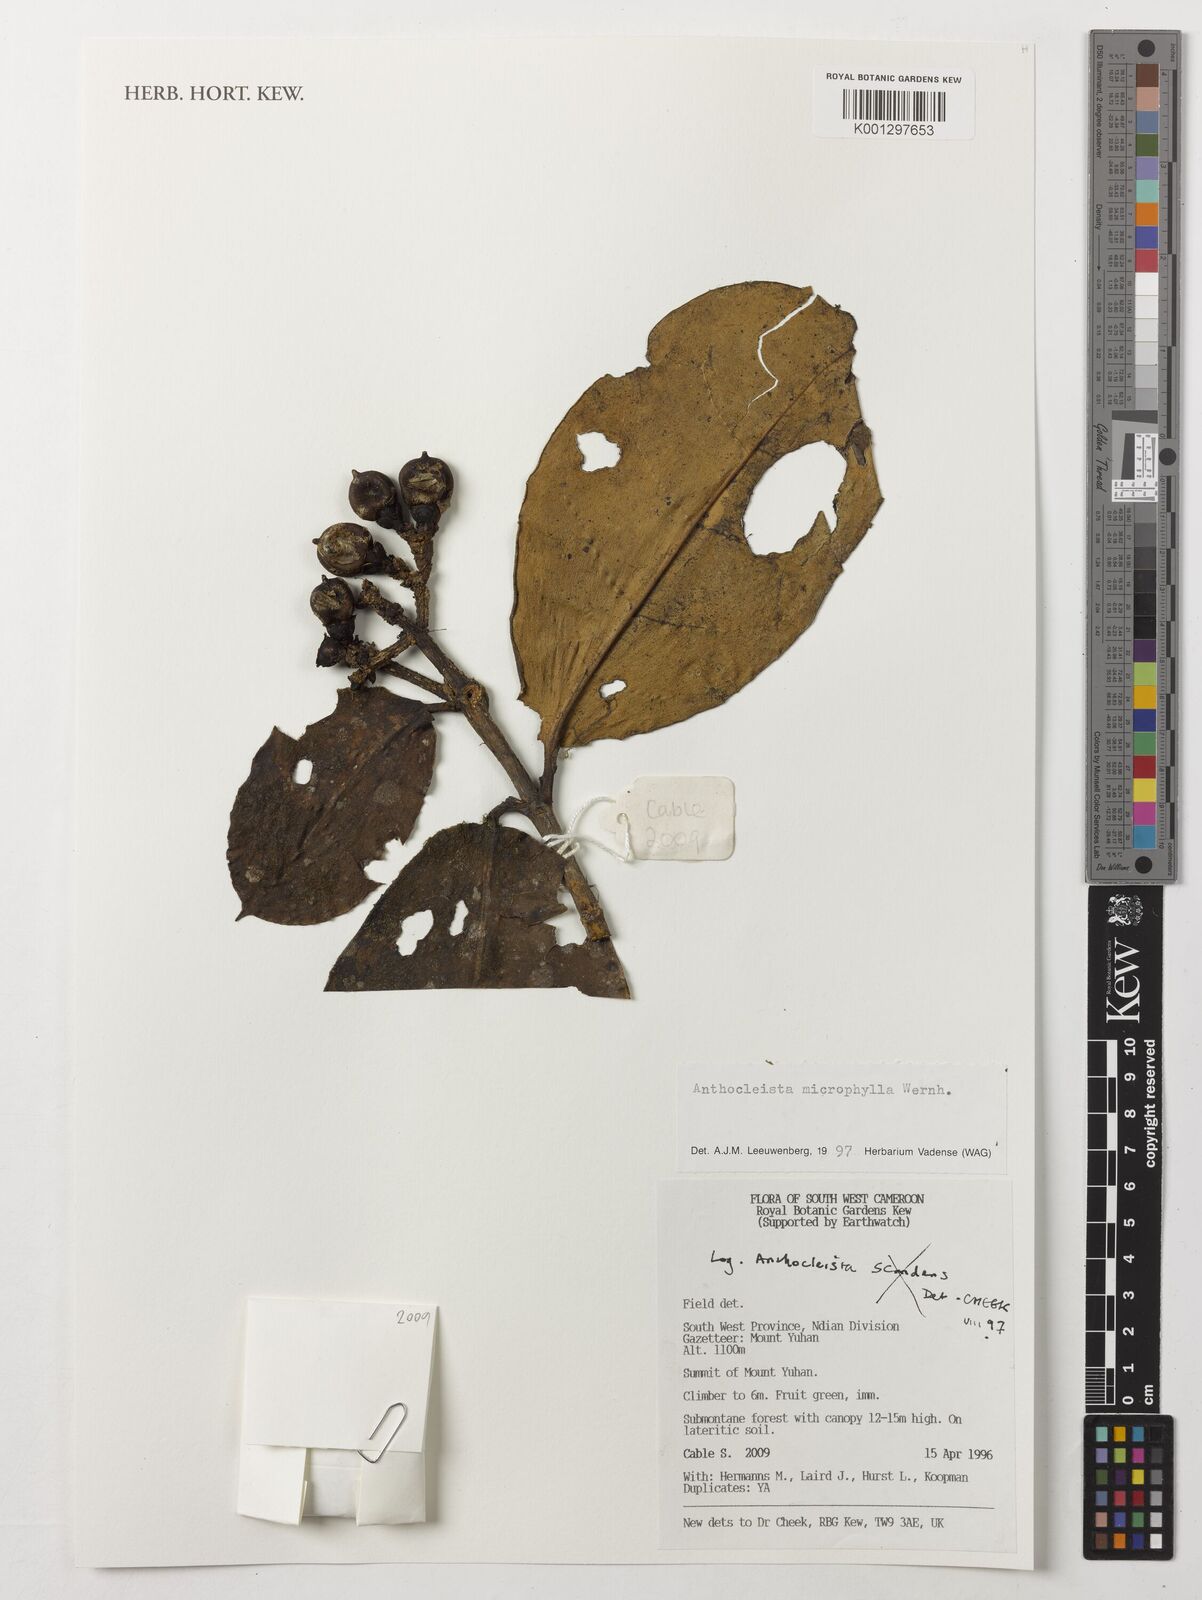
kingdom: Plantae
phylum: Tracheophyta
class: Magnoliopsida
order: Gentianales
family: Gentianaceae
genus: Anthocleista
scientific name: Anthocleista microphylla
